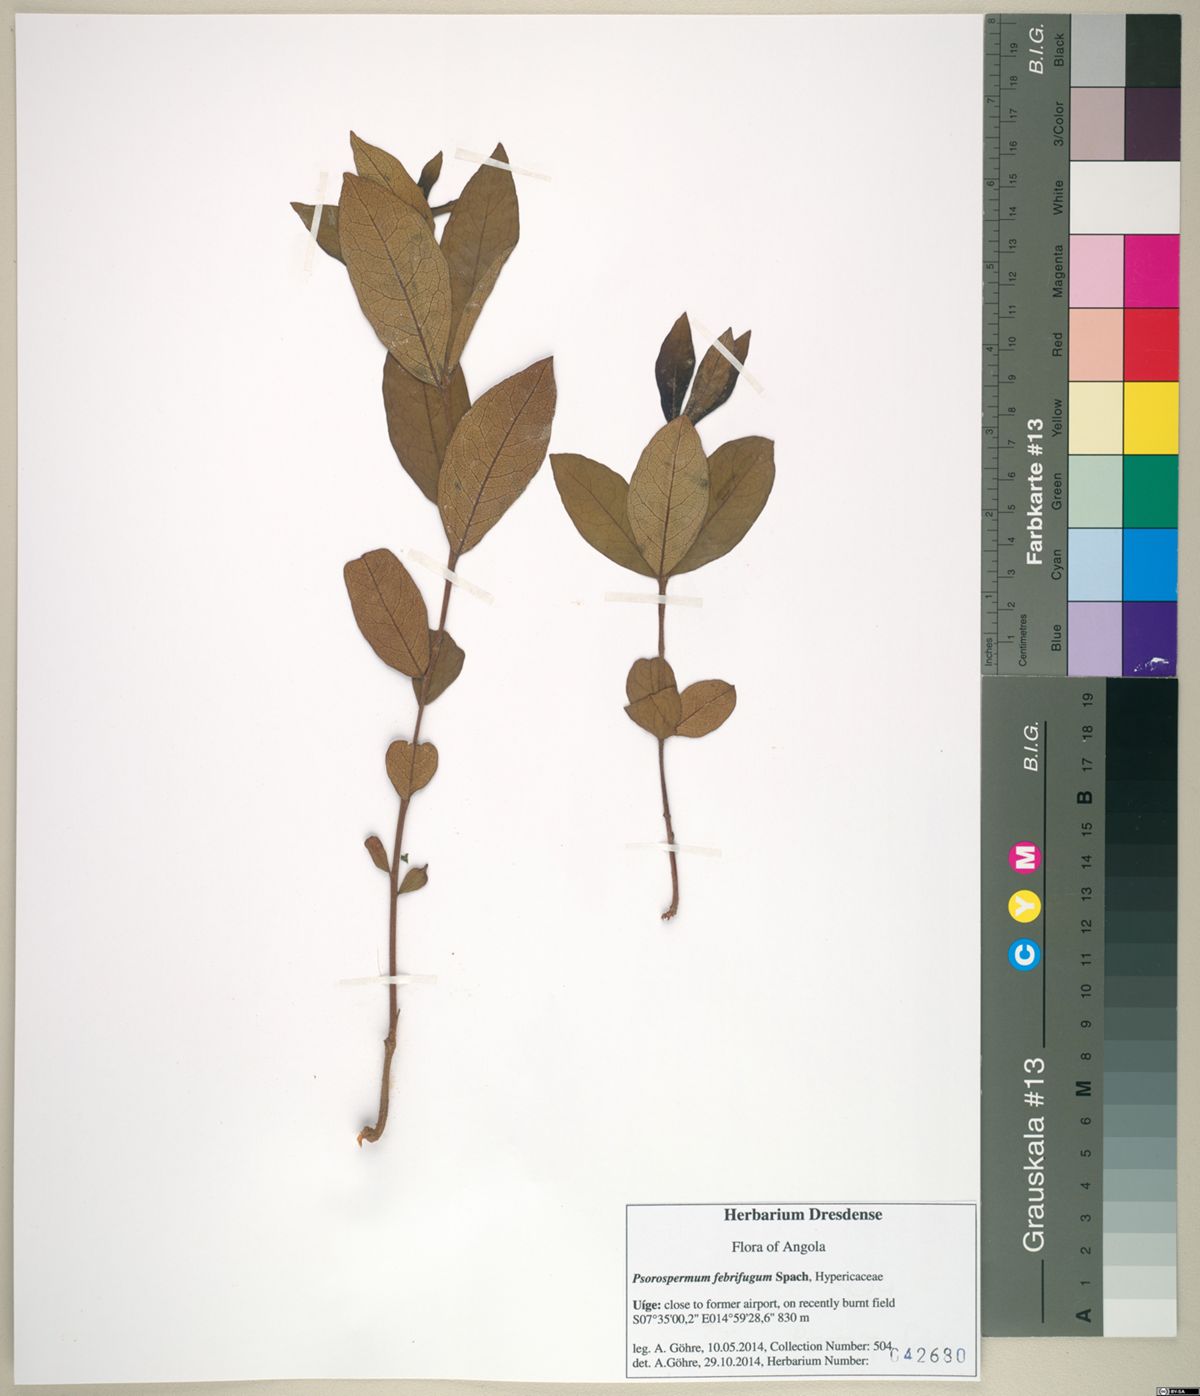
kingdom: Plantae
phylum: Tracheophyta
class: Magnoliopsida
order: Malpighiales
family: Hypericaceae
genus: Psorospermum
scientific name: Psorospermum febrifugum
